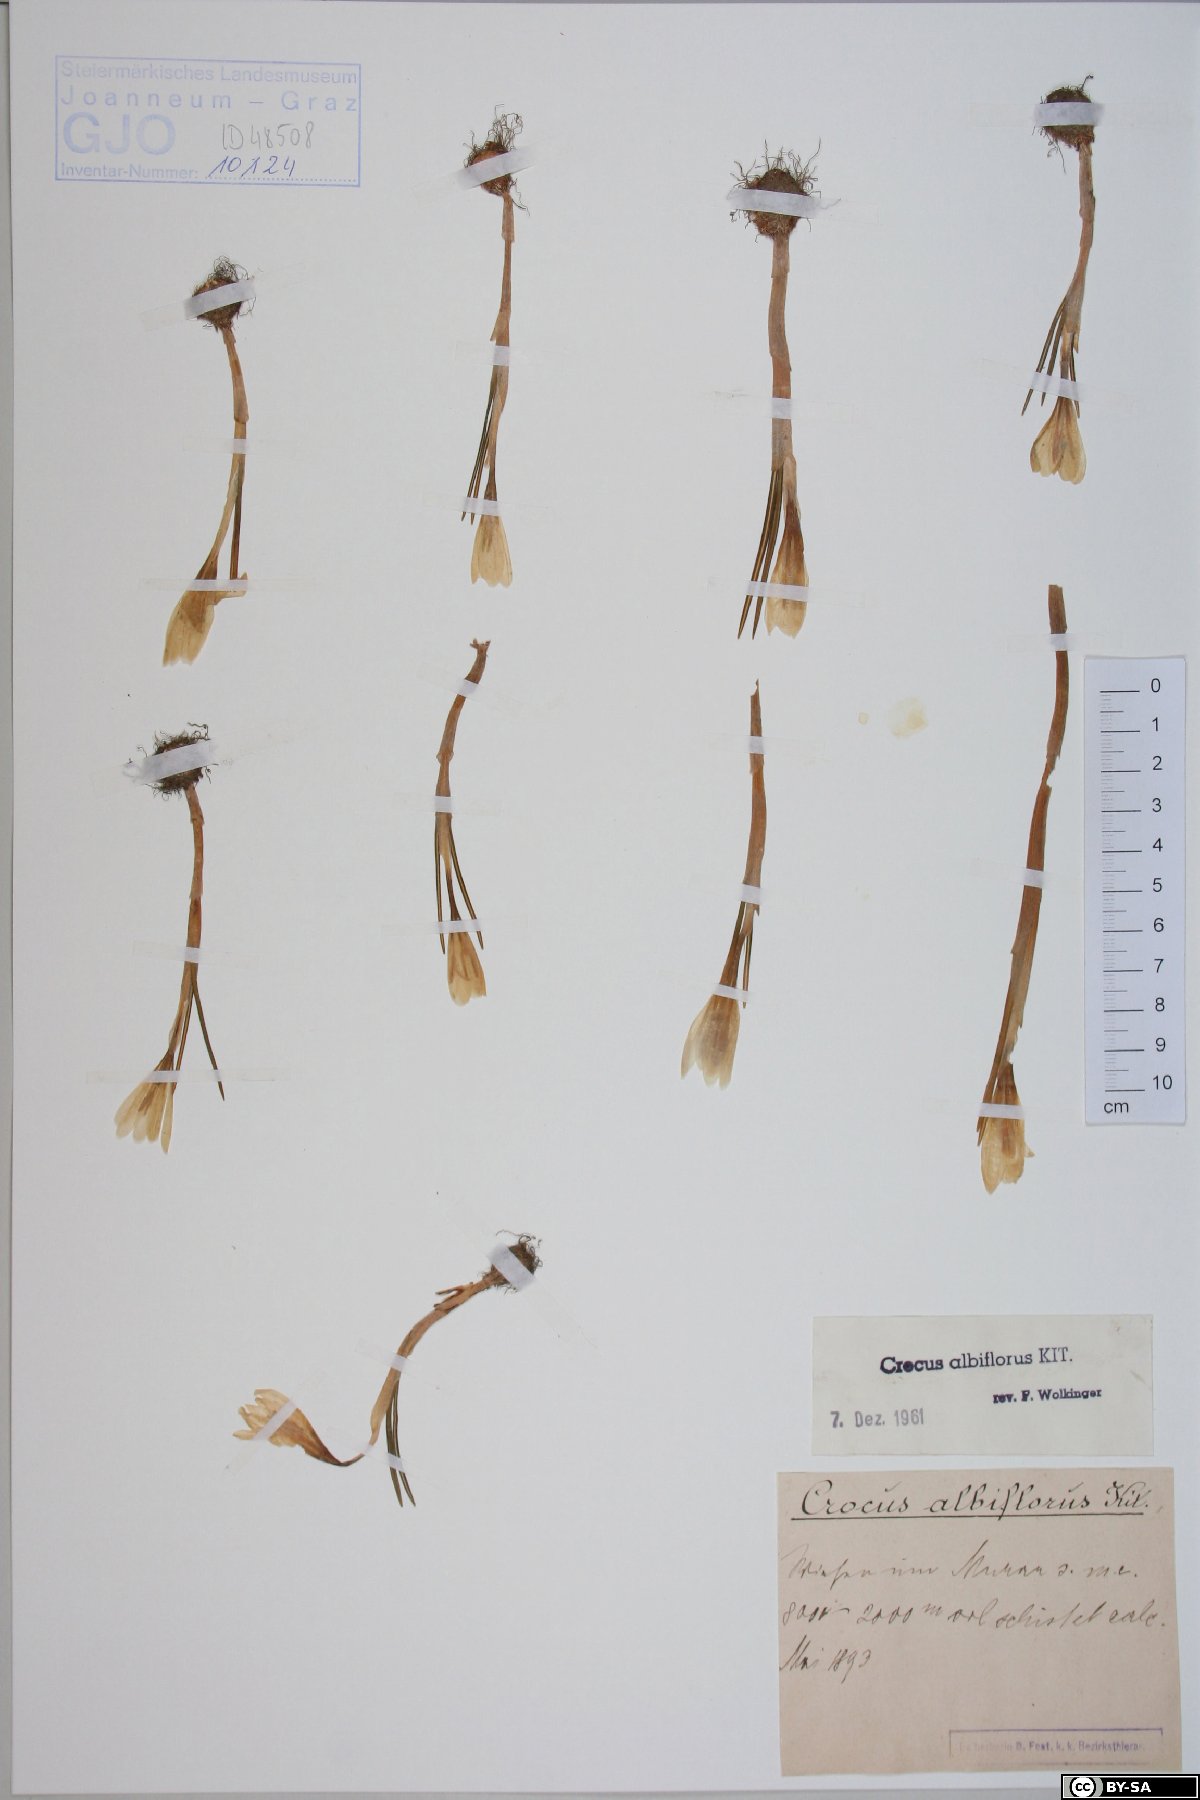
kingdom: Plantae
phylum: Tracheophyta
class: Liliopsida
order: Asparagales
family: Iridaceae
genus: Crocus
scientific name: Crocus vernus
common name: Spring crocus
